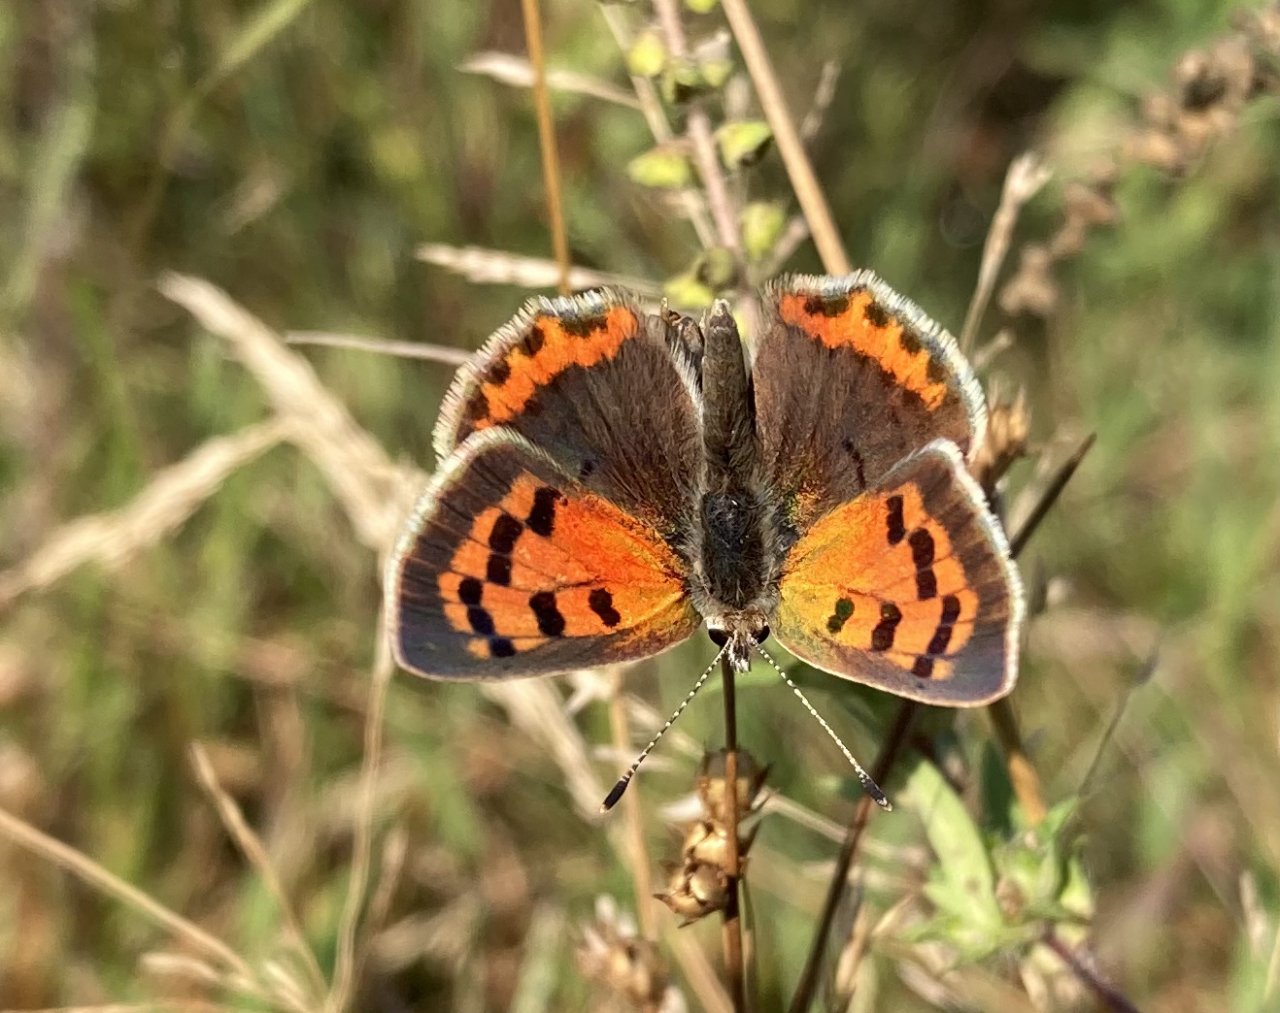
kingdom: Animalia
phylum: Arthropoda
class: Insecta
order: Lepidoptera
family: Lycaenidae
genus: Lycaena
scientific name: Lycaena phlaeas
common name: American Copper
